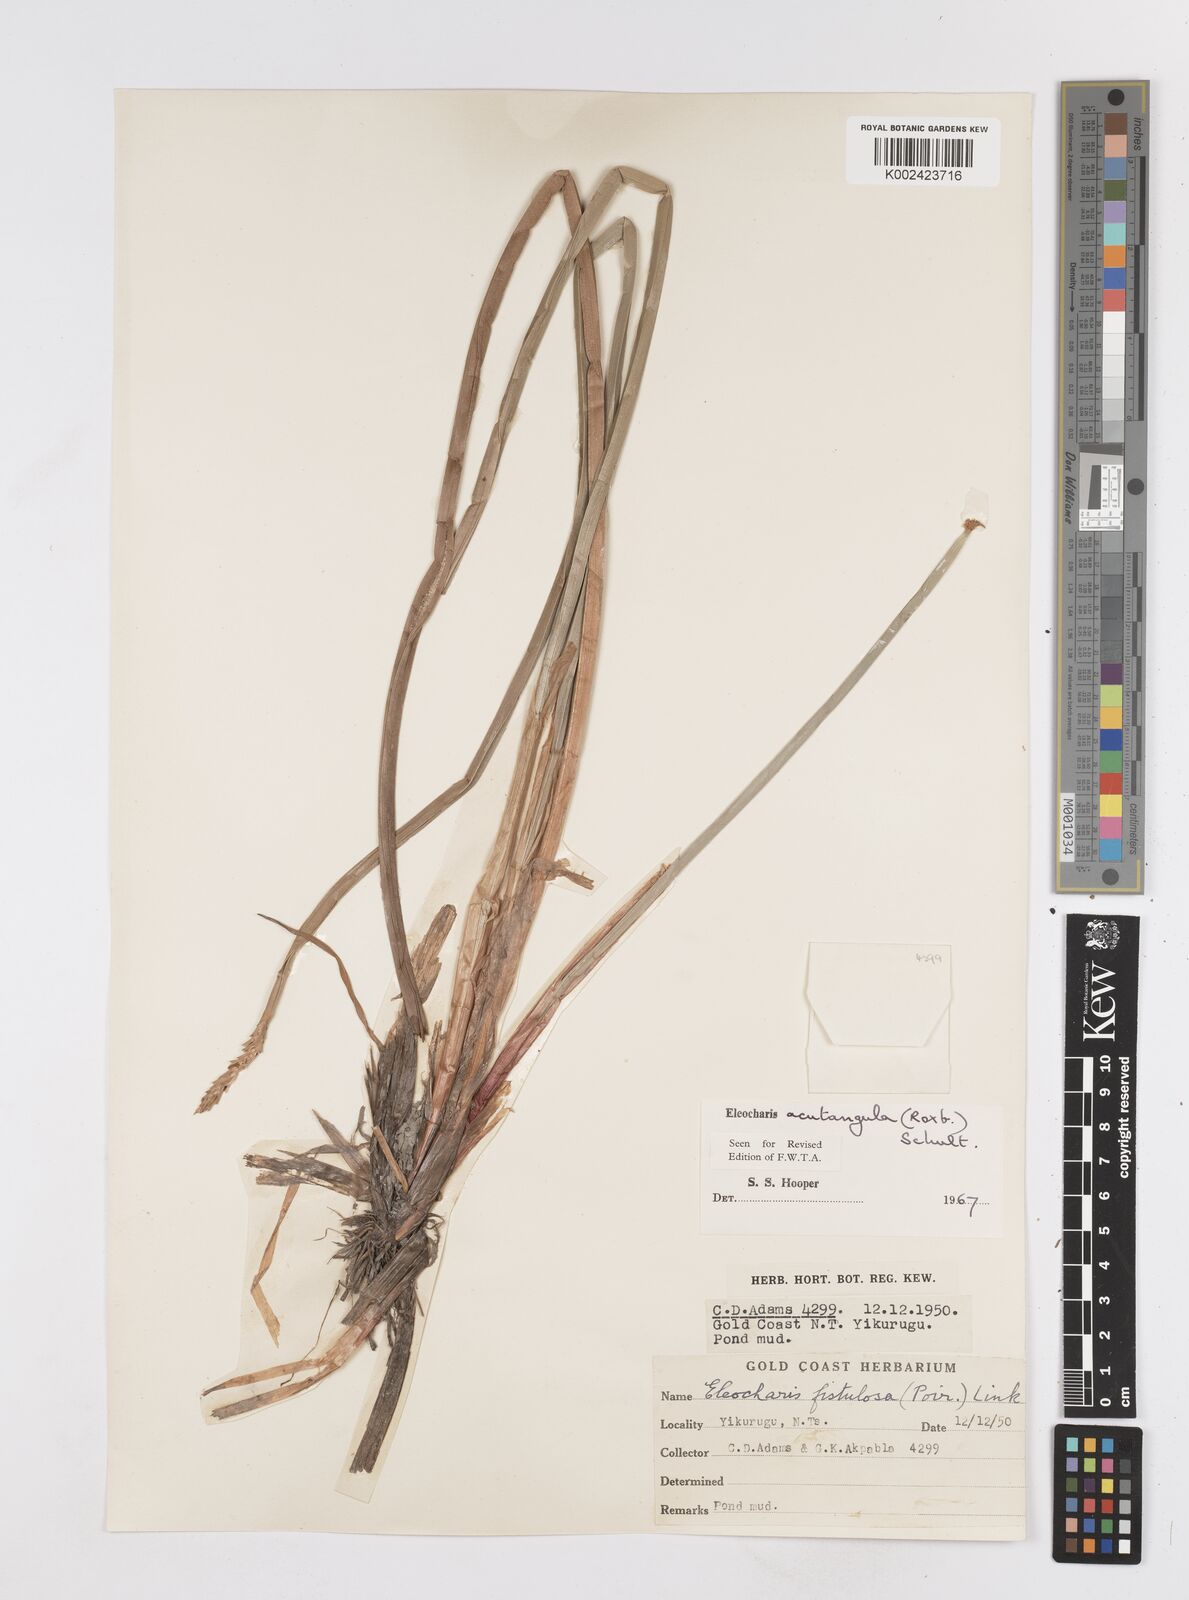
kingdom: Plantae
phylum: Tracheophyta
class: Liliopsida
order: Poales
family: Cyperaceae
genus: Eleocharis
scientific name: Eleocharis acutangula
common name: Acute spikerush
